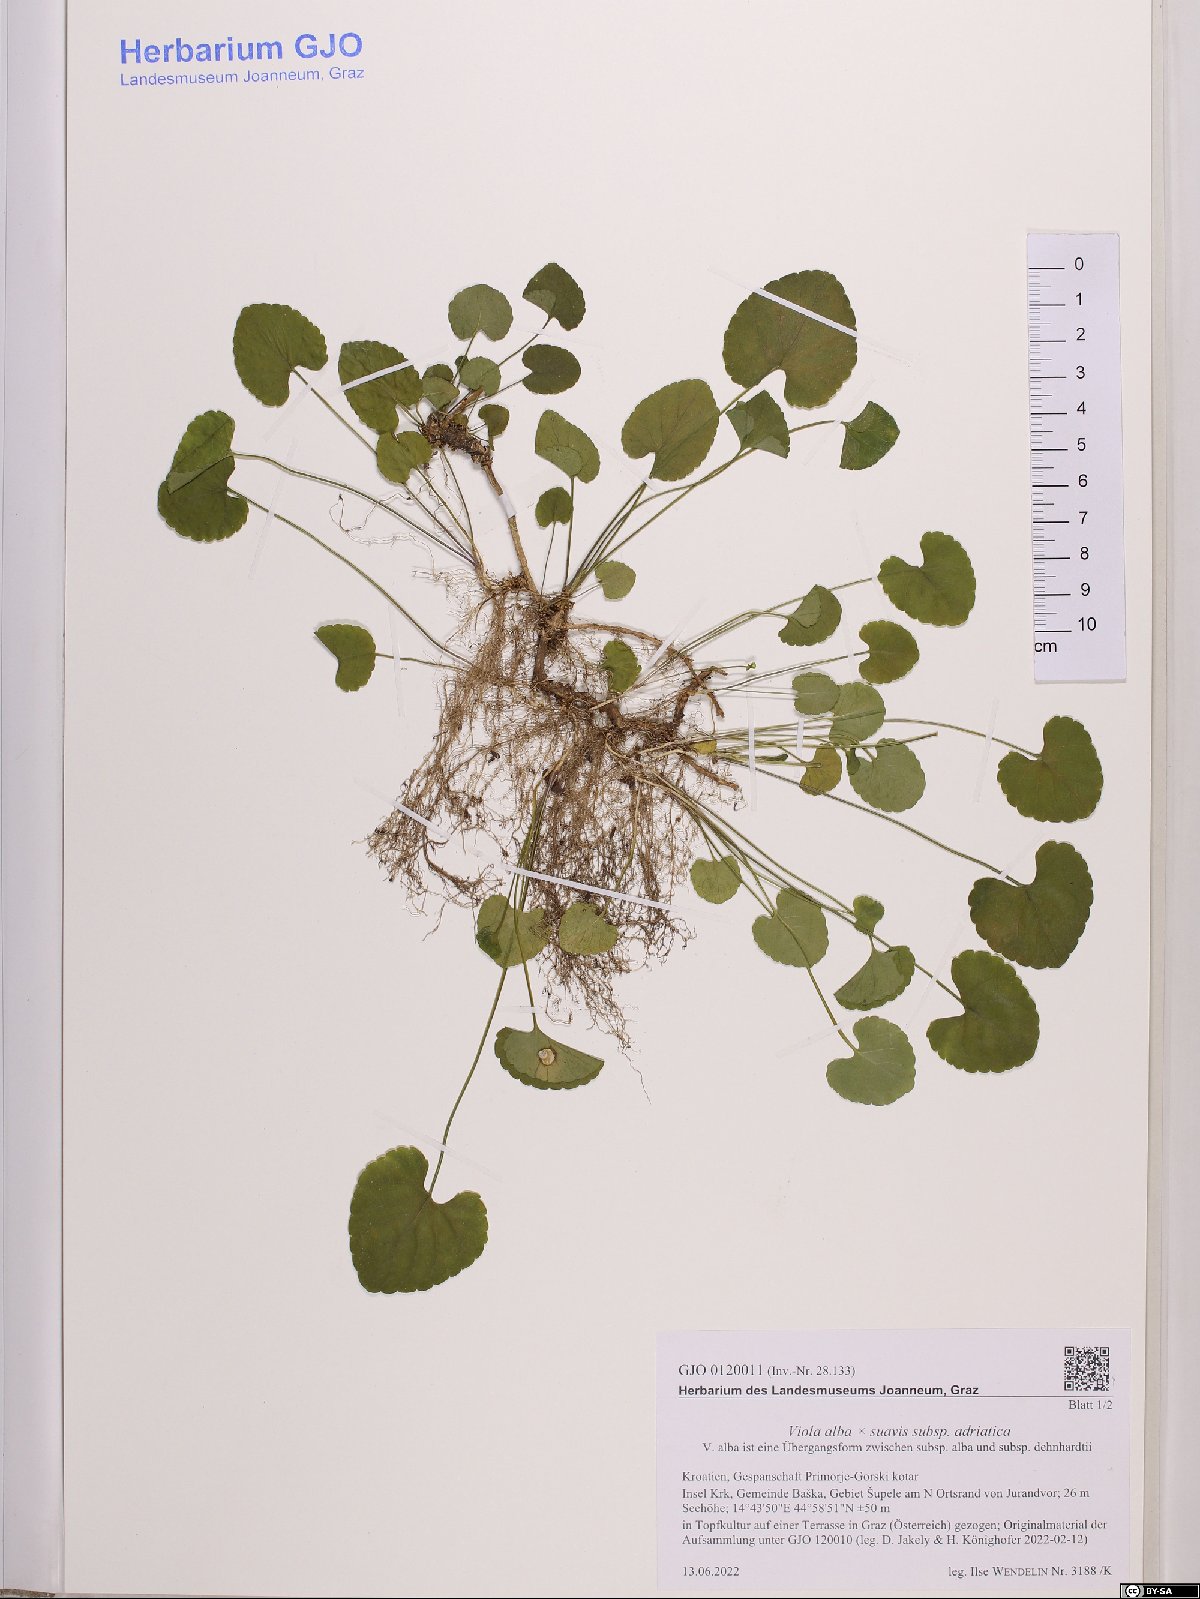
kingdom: Plantae
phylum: Tracheophyta
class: Magnoliopsida
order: Malpighiales
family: Violaceae
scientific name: Violaceae
